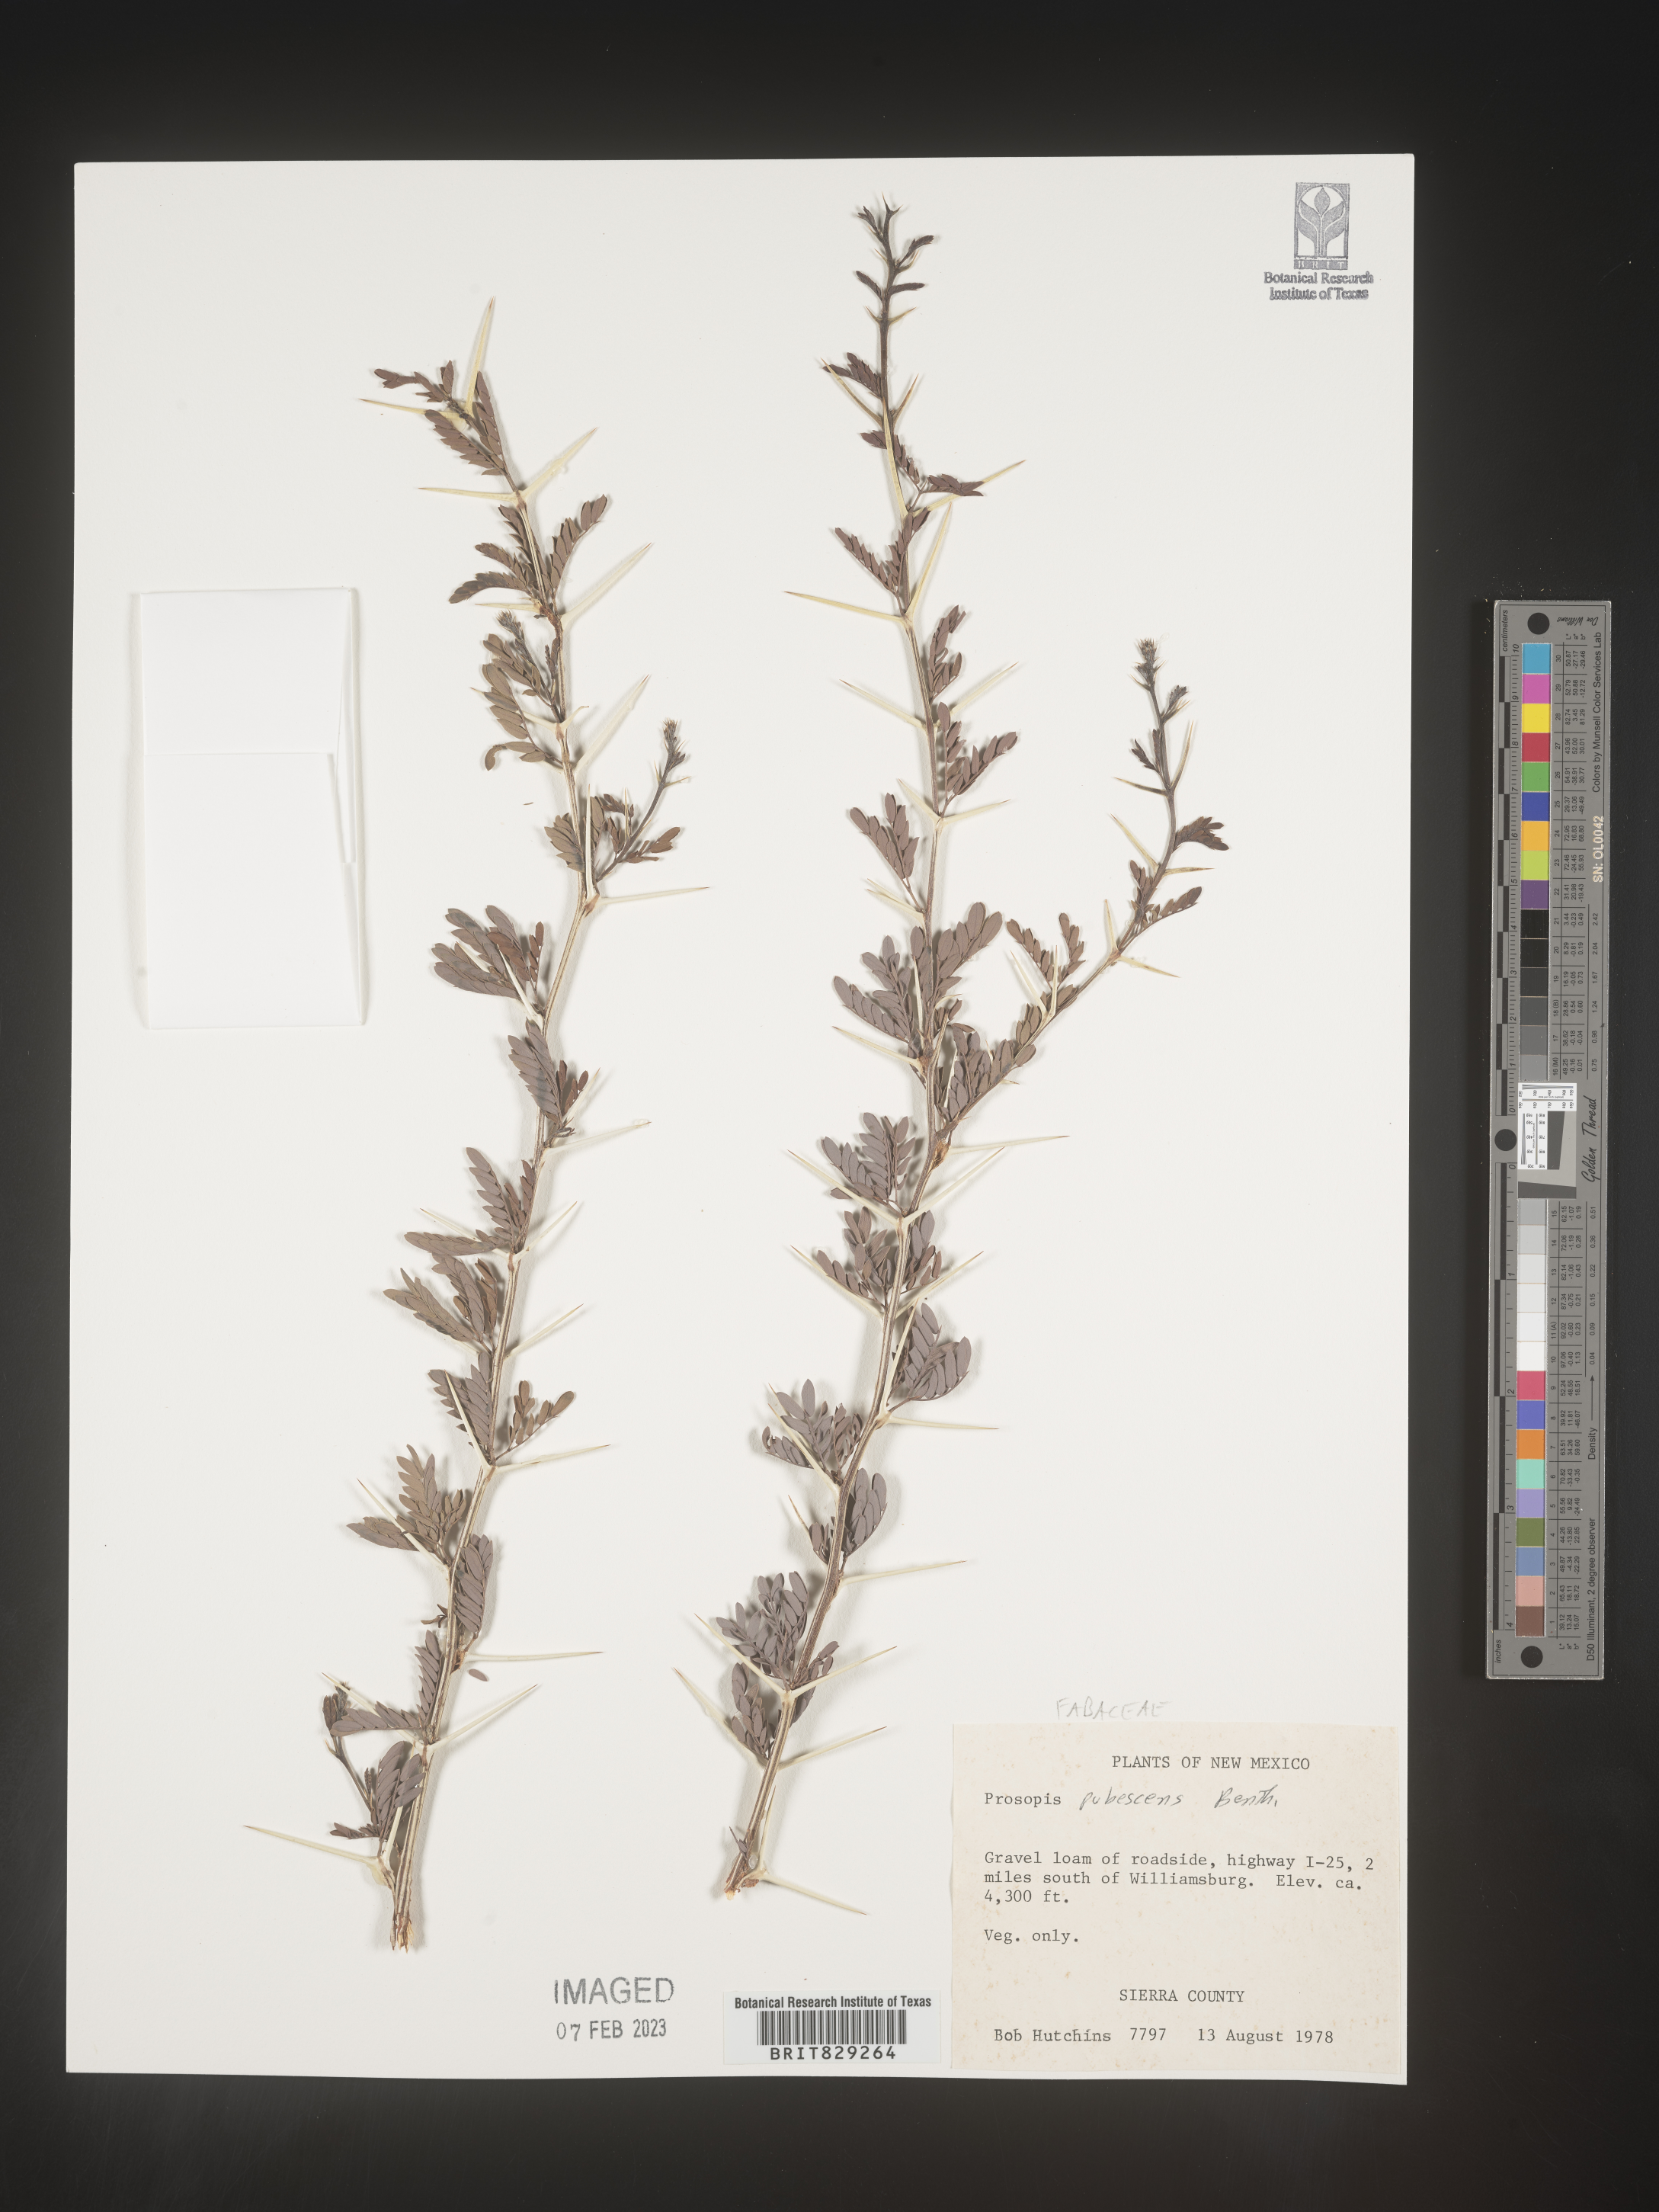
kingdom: Plantae
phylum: Tracheophyta
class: Magnoliopsida
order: Fabales
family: Fabaceae
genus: Prosopis
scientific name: Prosopis
